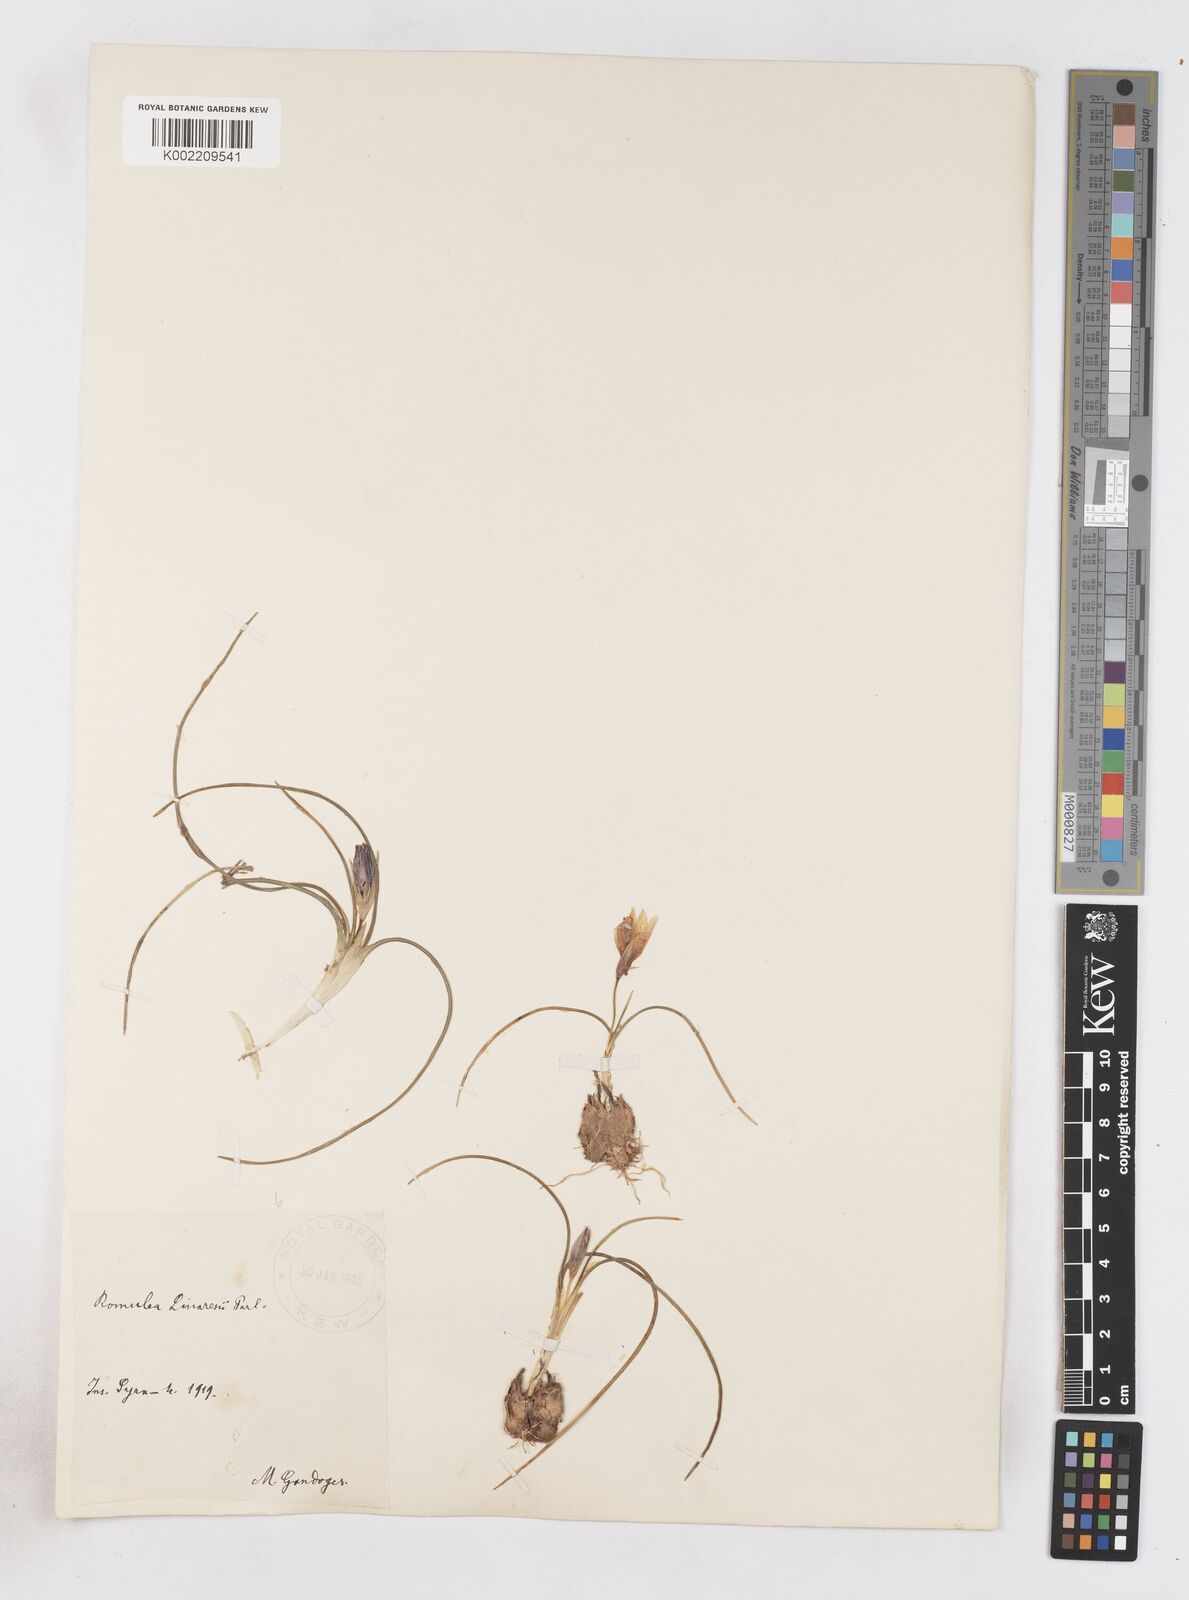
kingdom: Plantae
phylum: Tracheophyta
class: Liliopsida
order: Asparagales
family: Iridaceae
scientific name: Iridaceae
